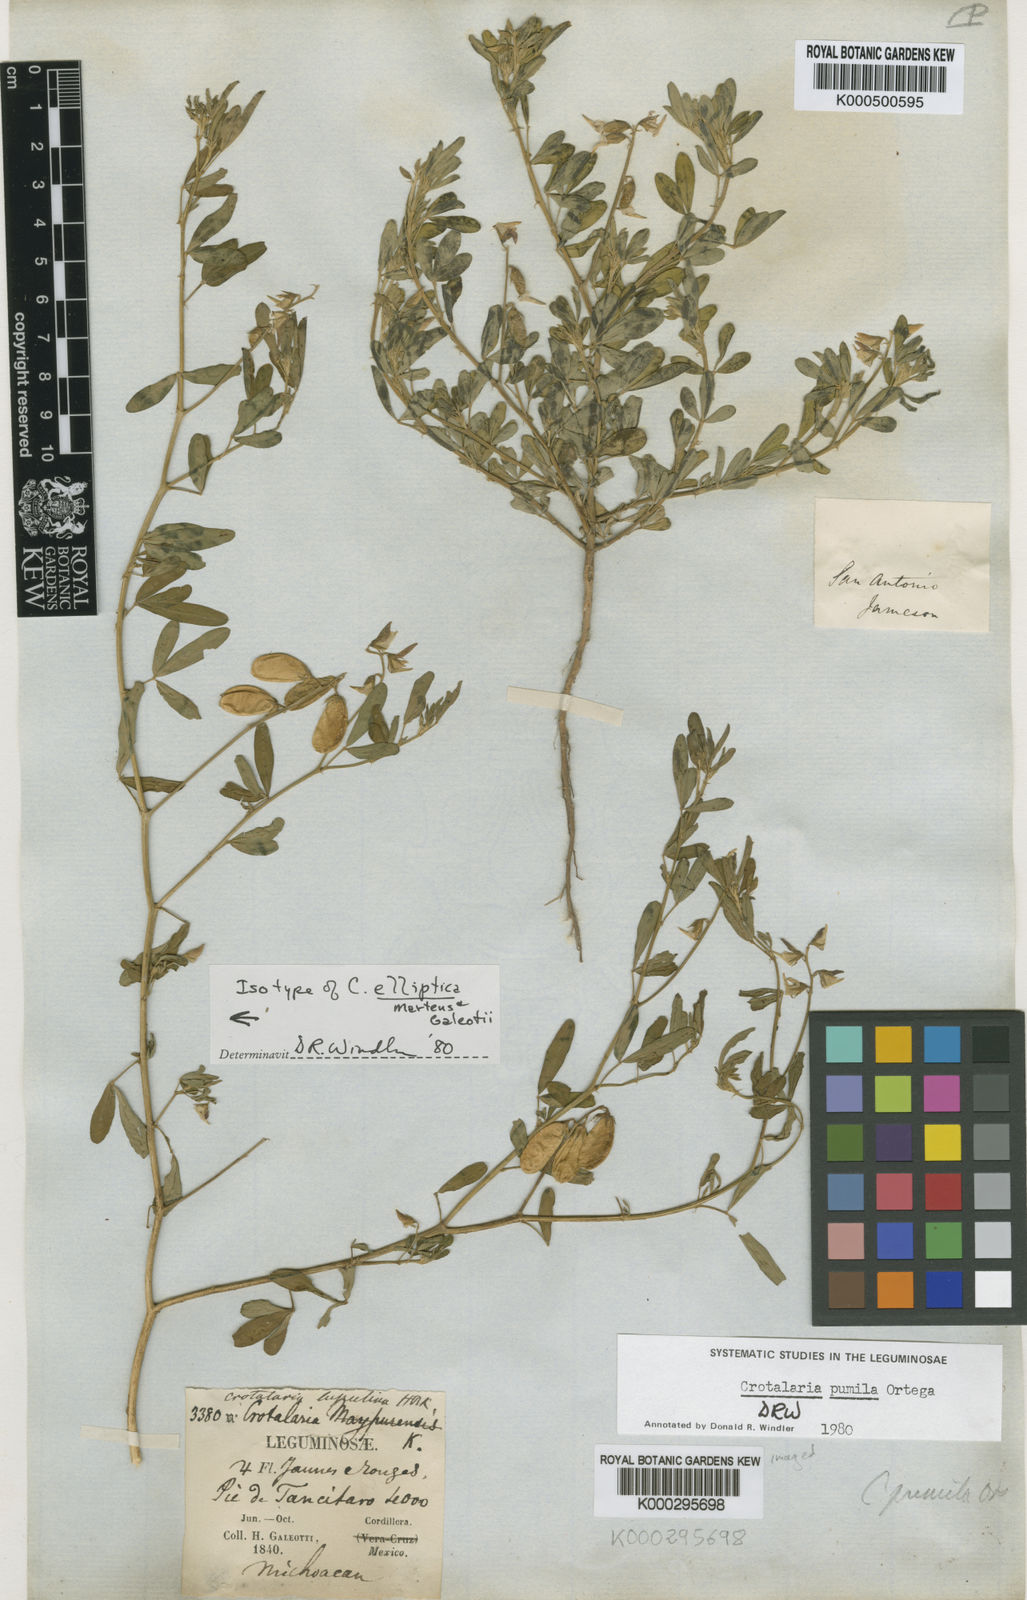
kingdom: Plantae
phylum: Tracheophyta
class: Magnoliopsida
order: Fabales
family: Fabaceae
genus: Crotalaria
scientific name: Crotalaria pumila
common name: Low rattlebox
